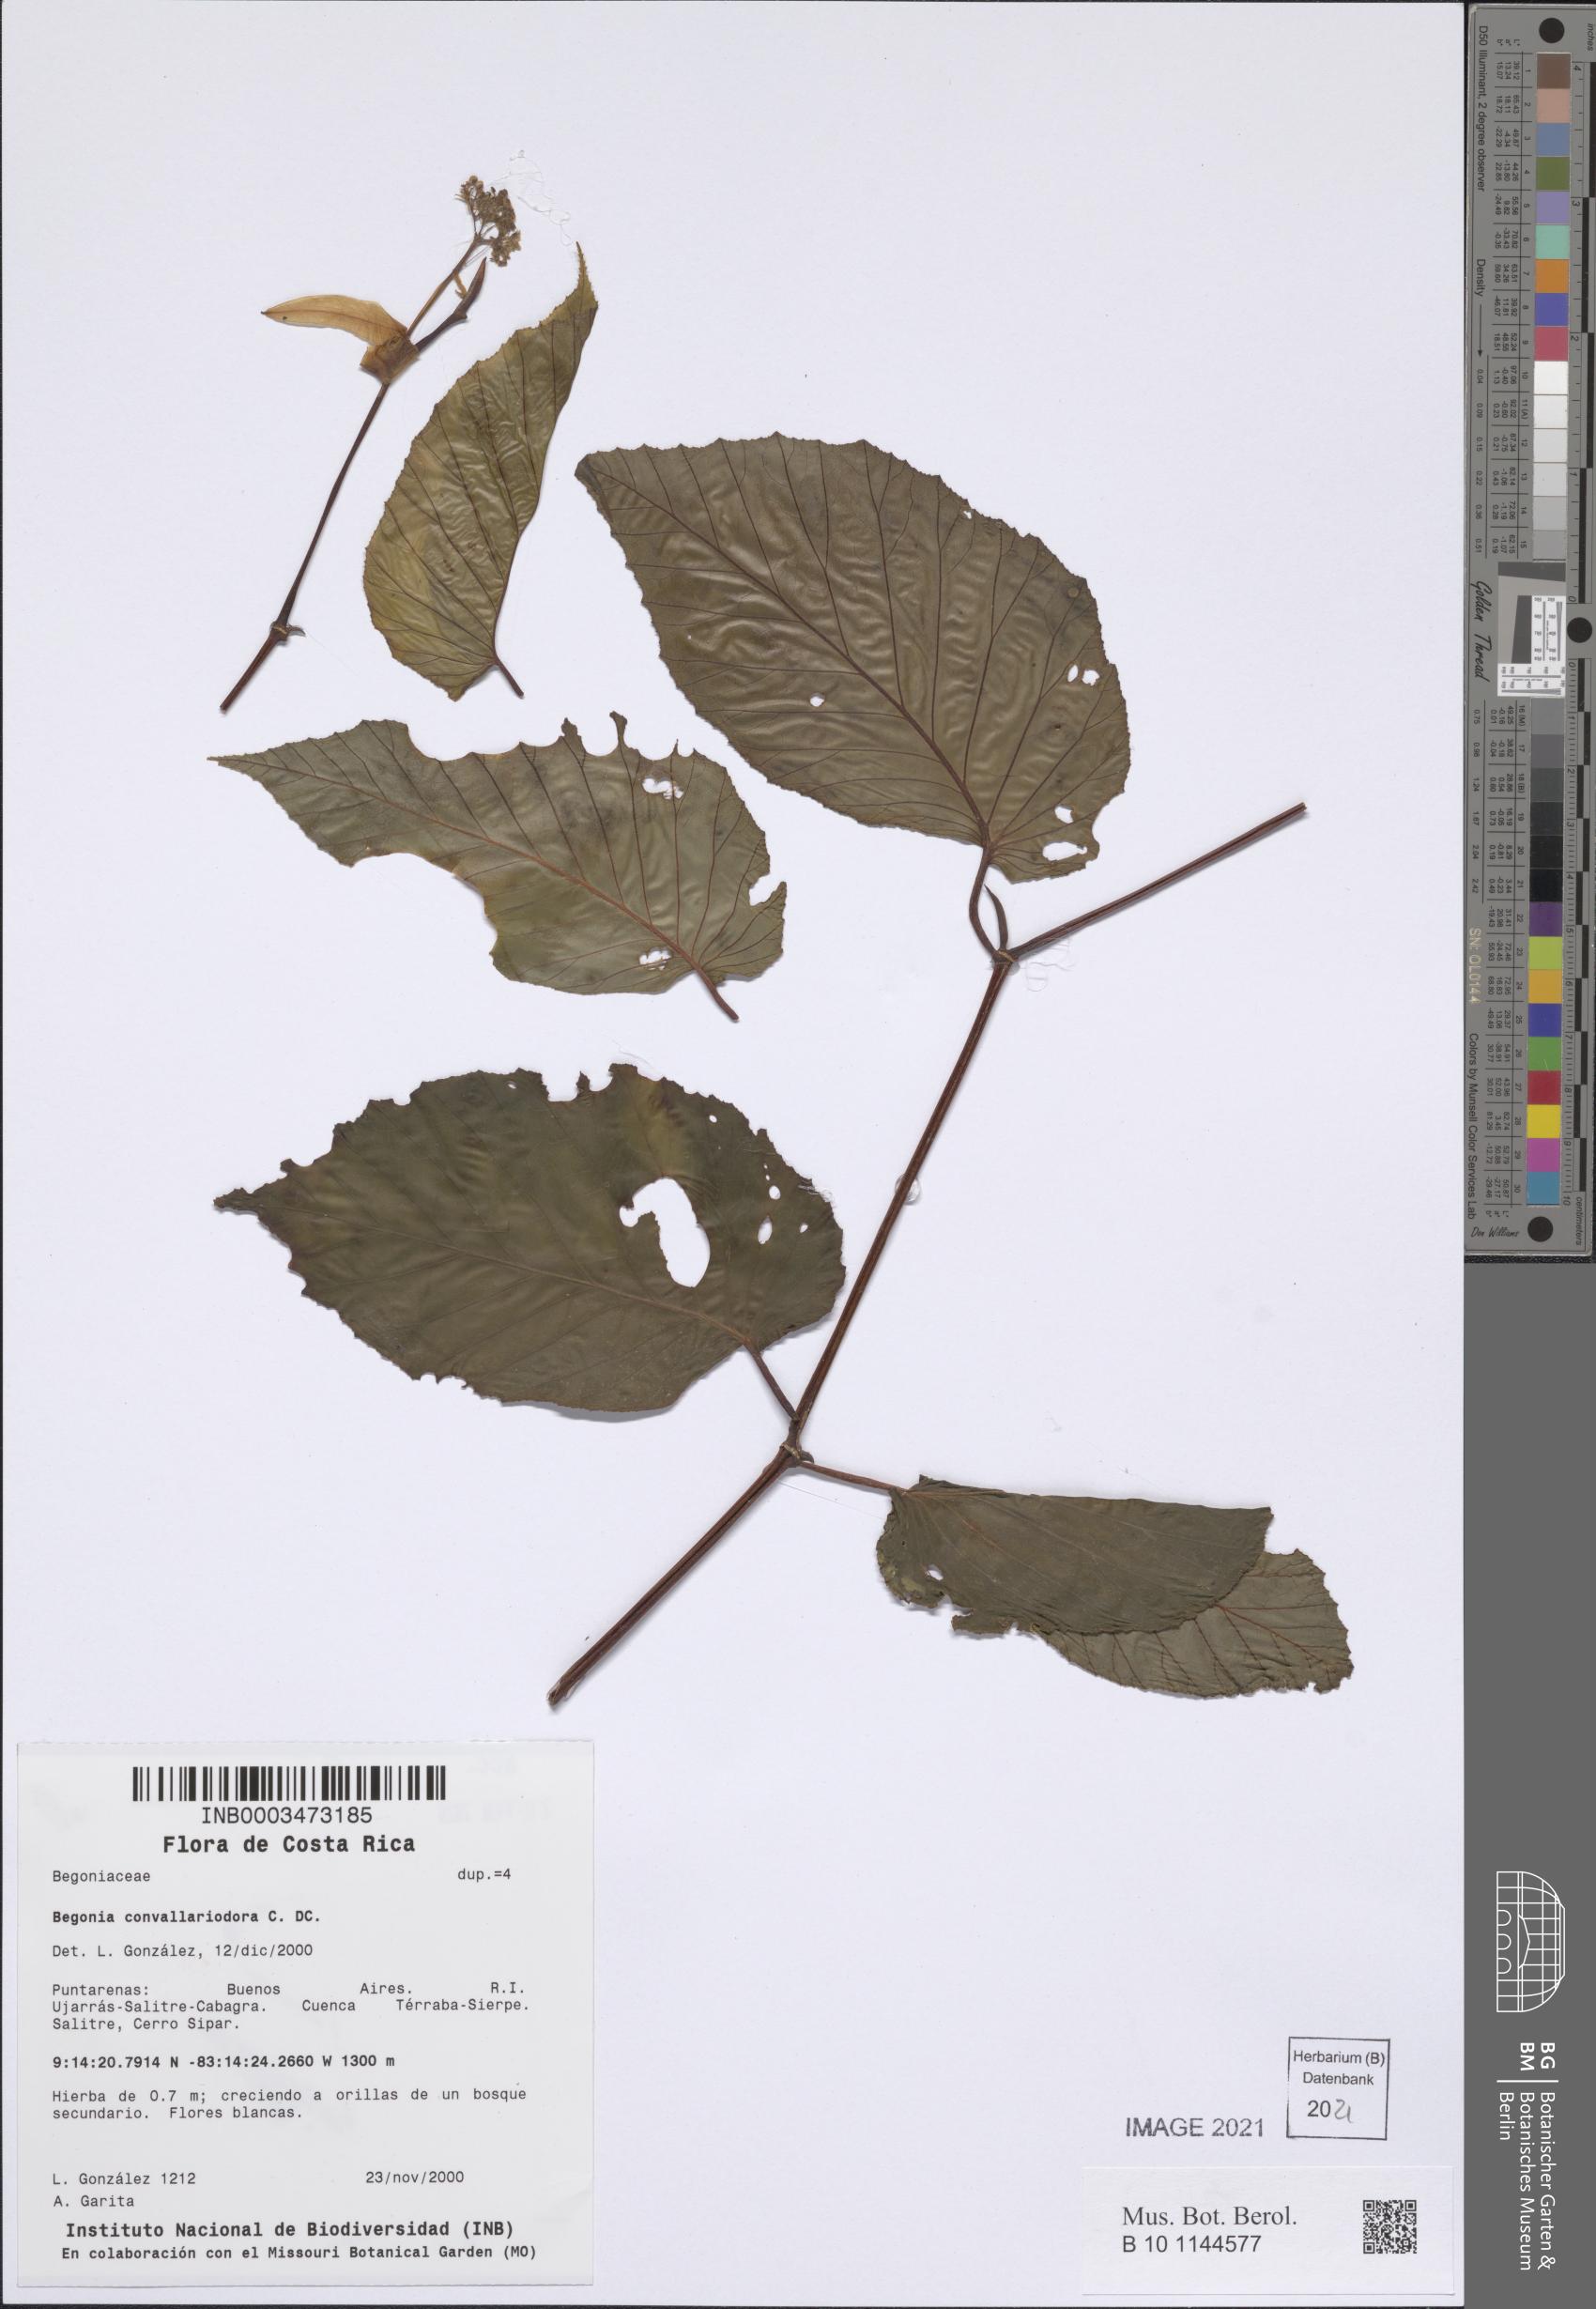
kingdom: Plantae
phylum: Tracheophyta
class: Magnoliopsida
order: Cucurbitales
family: Begoniaceae
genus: Begonia
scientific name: Begonia convallariodora
